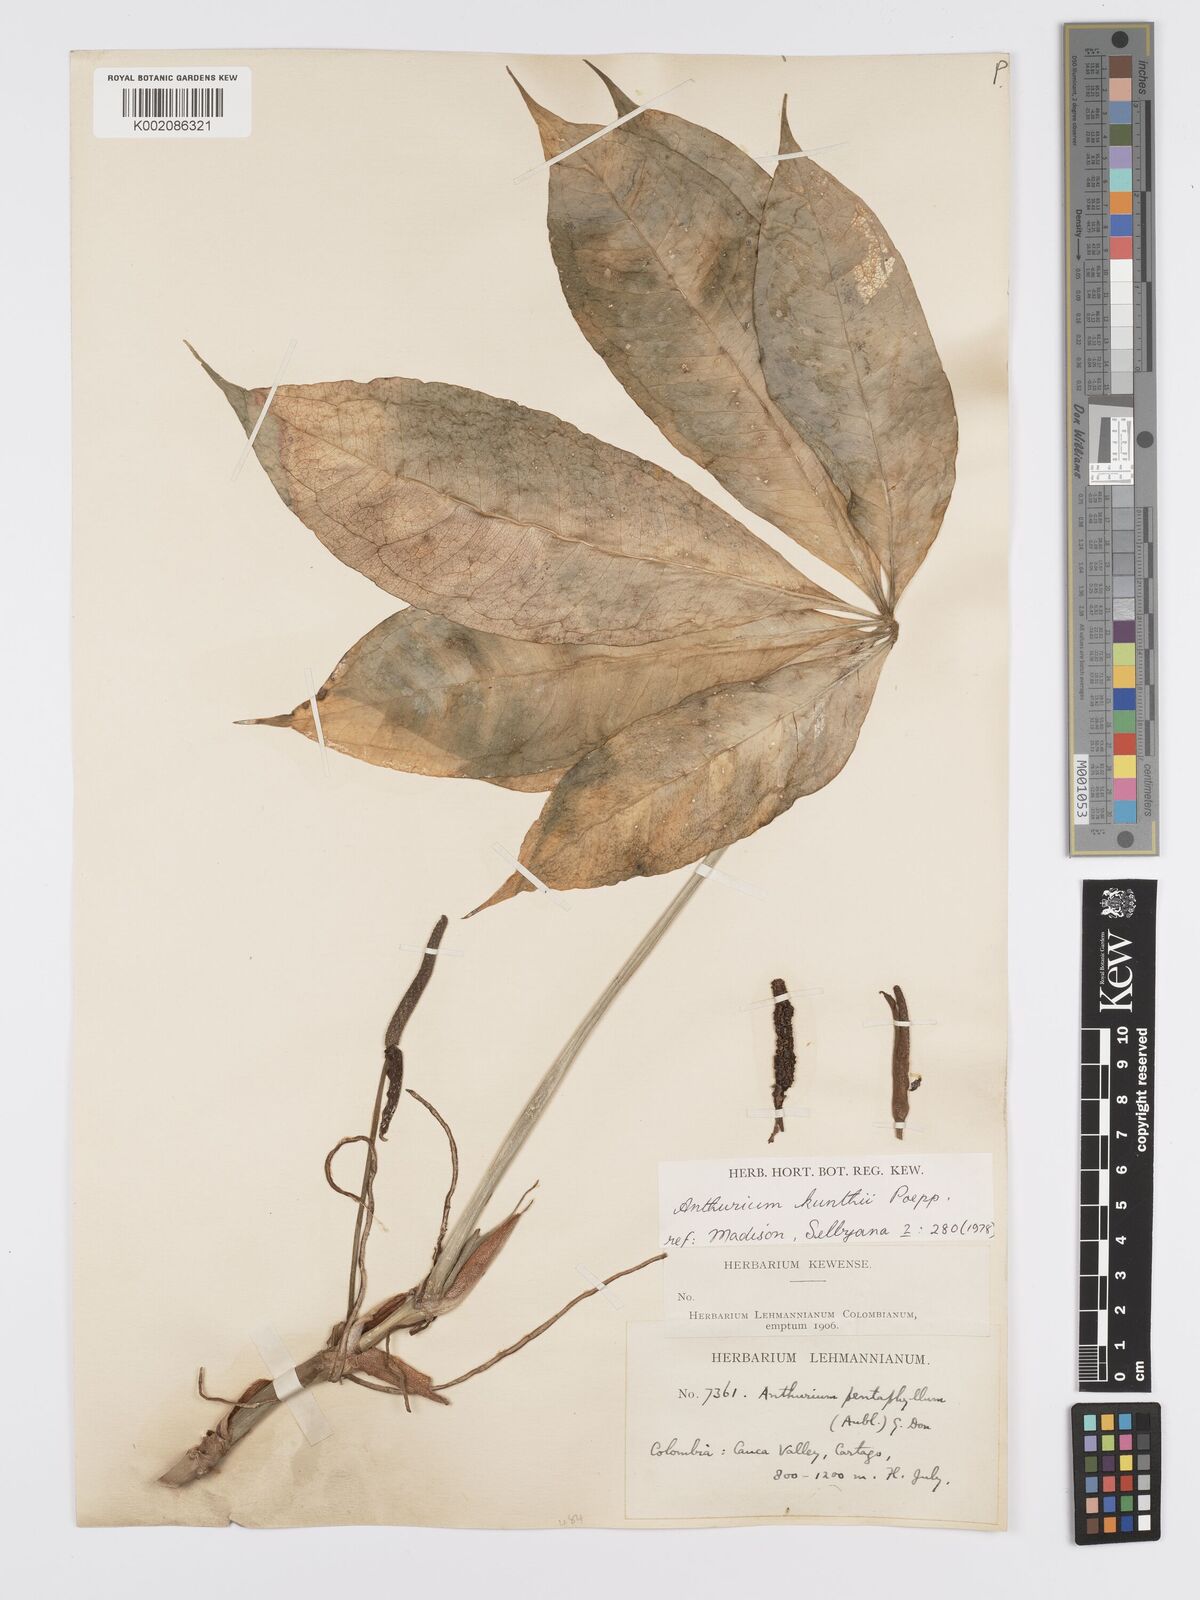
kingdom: Plantae
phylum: Tracheophyta
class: Liliopsida
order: Alismatales
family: Araceae
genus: Anthurium
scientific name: Anthurium kunthii
